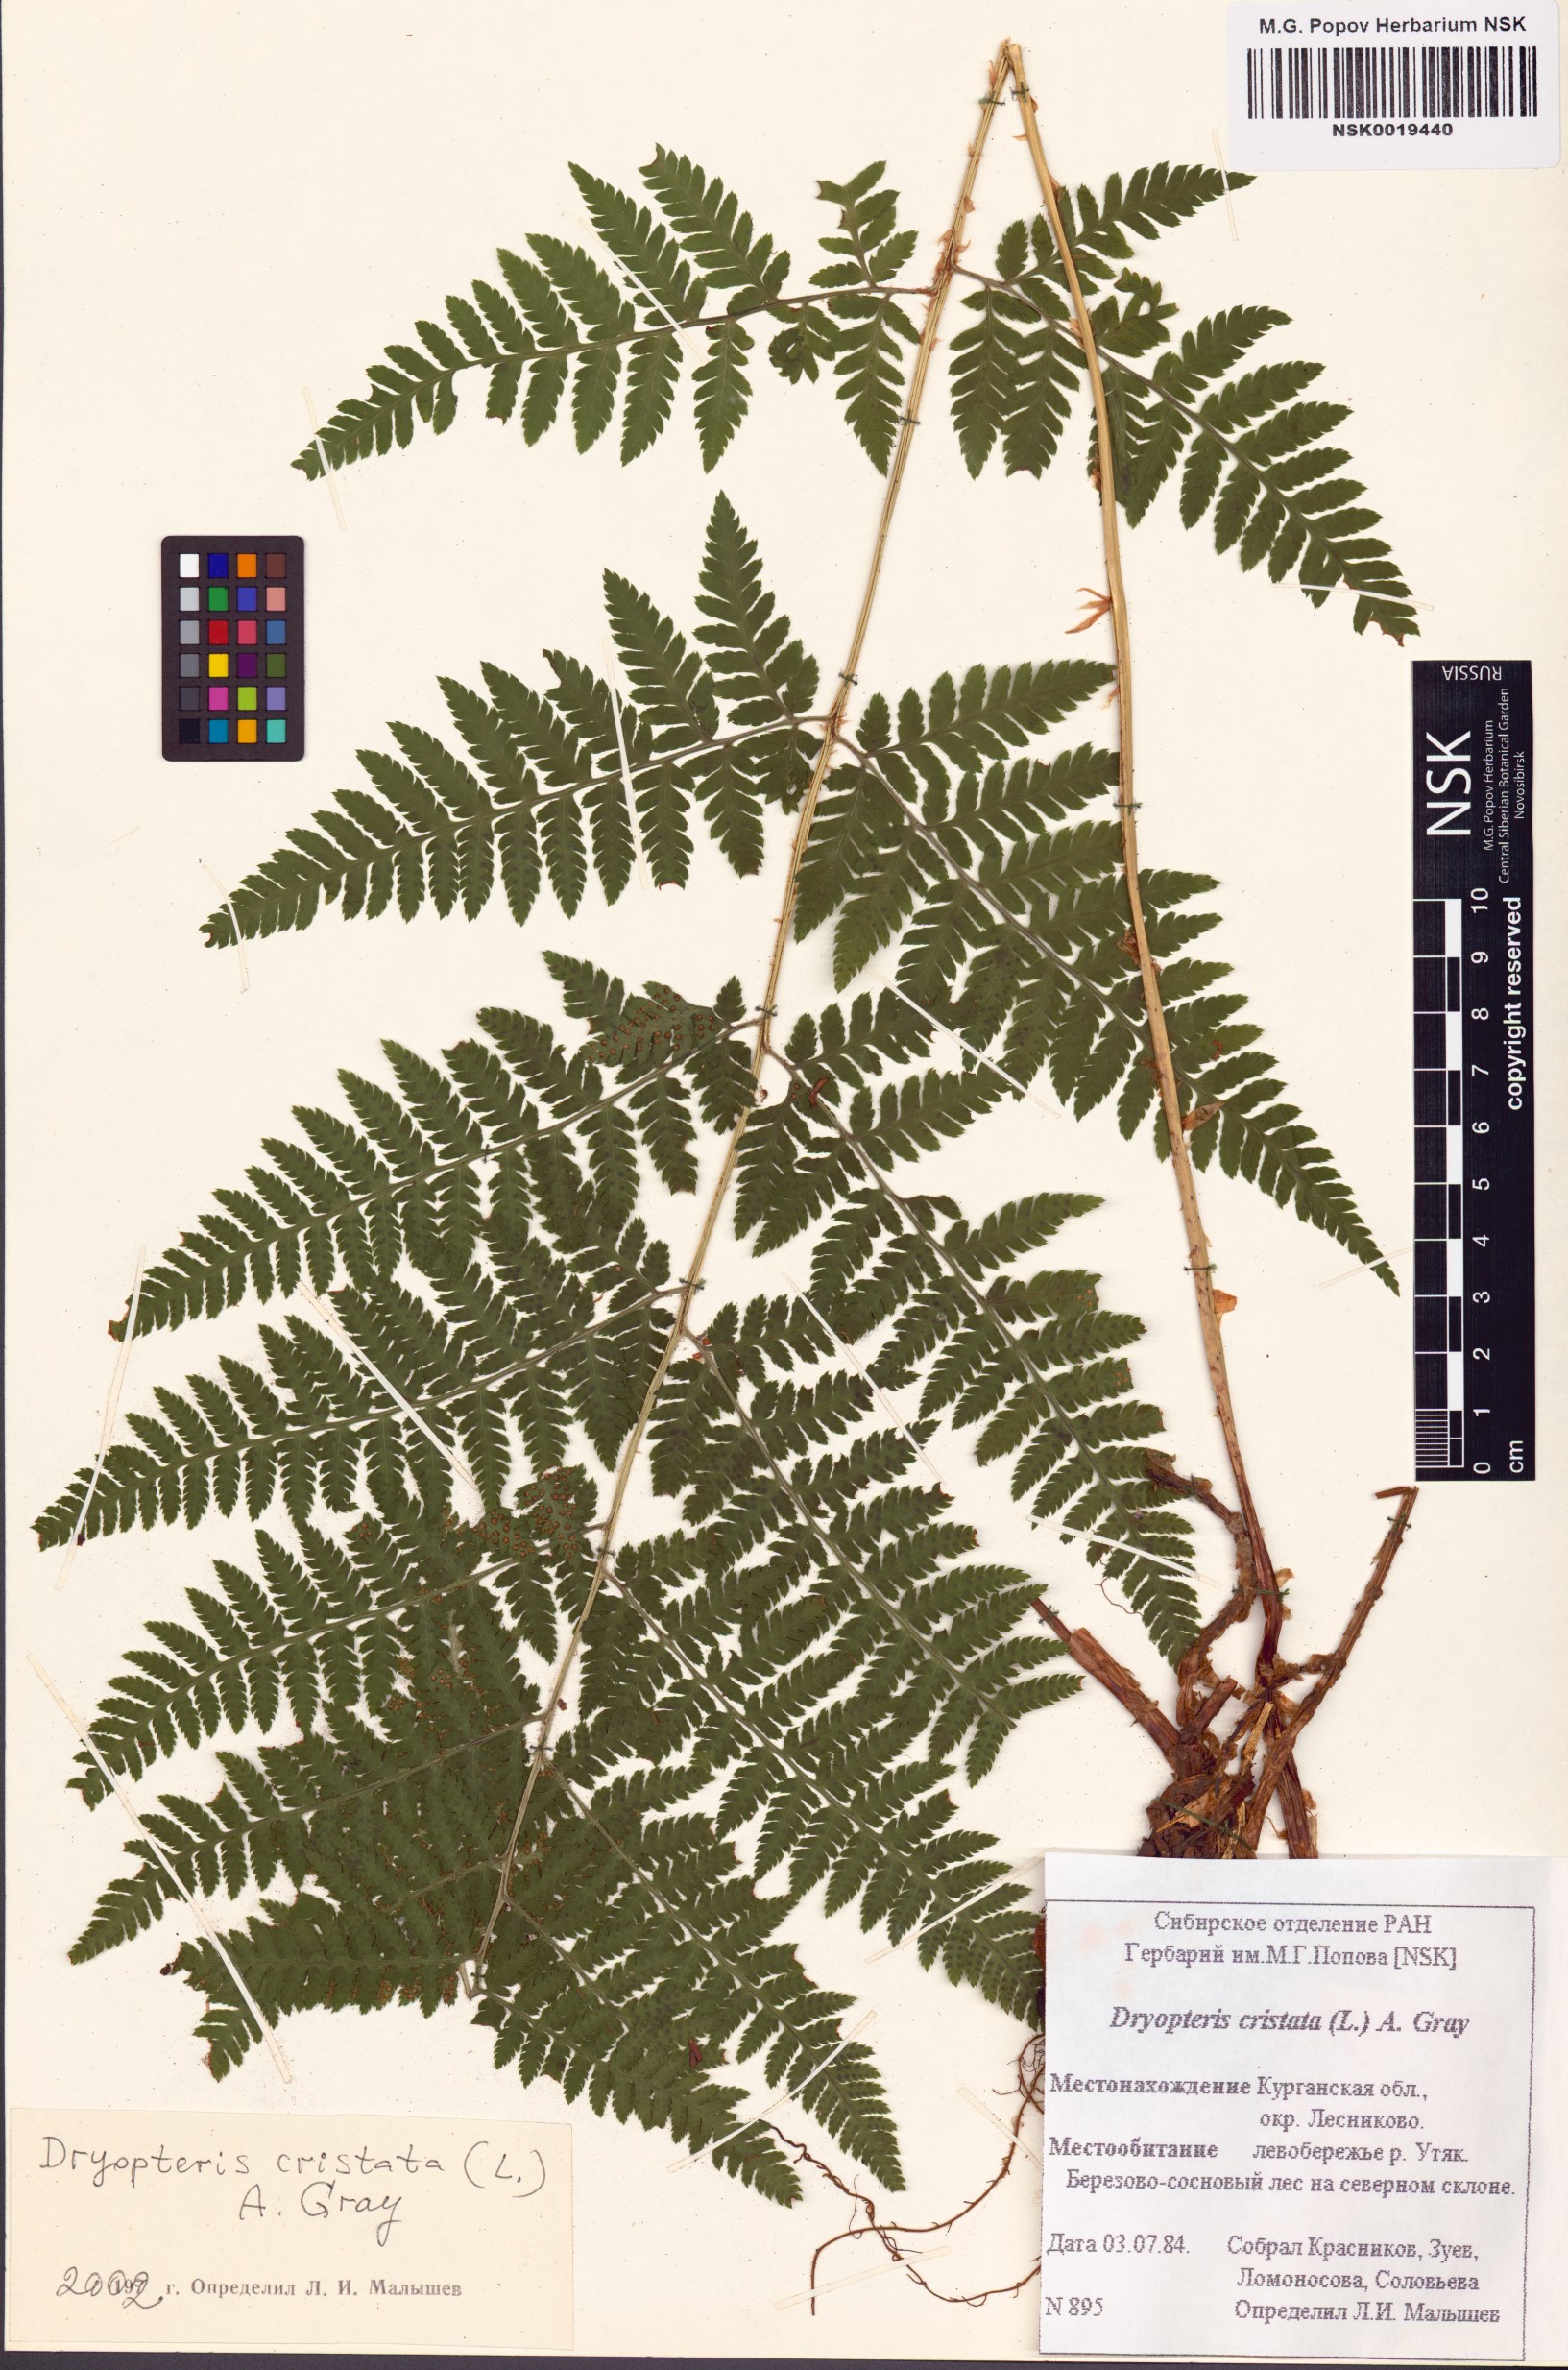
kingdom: Plantae
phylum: Tracheophyta
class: Polypodiopsida
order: Polypodiales
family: Dryopteridaceae
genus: Dryopteris
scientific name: Dryopteris cristata
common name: Crested wood fern
